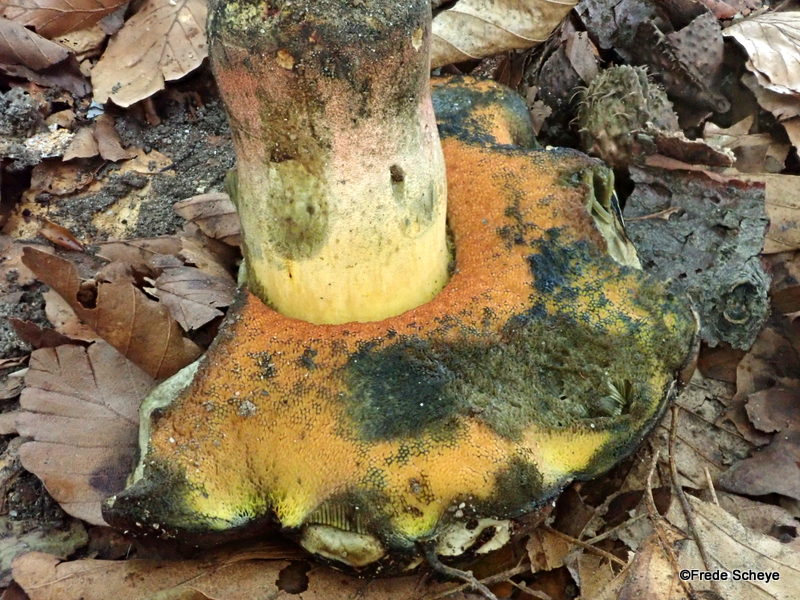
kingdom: Fungi
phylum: Basidiomycota
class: Agaricomycetes
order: Boletales
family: Boletaceae
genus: Neoboletus
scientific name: Neoboletus erythropus
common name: punktstokket indigorørhat
